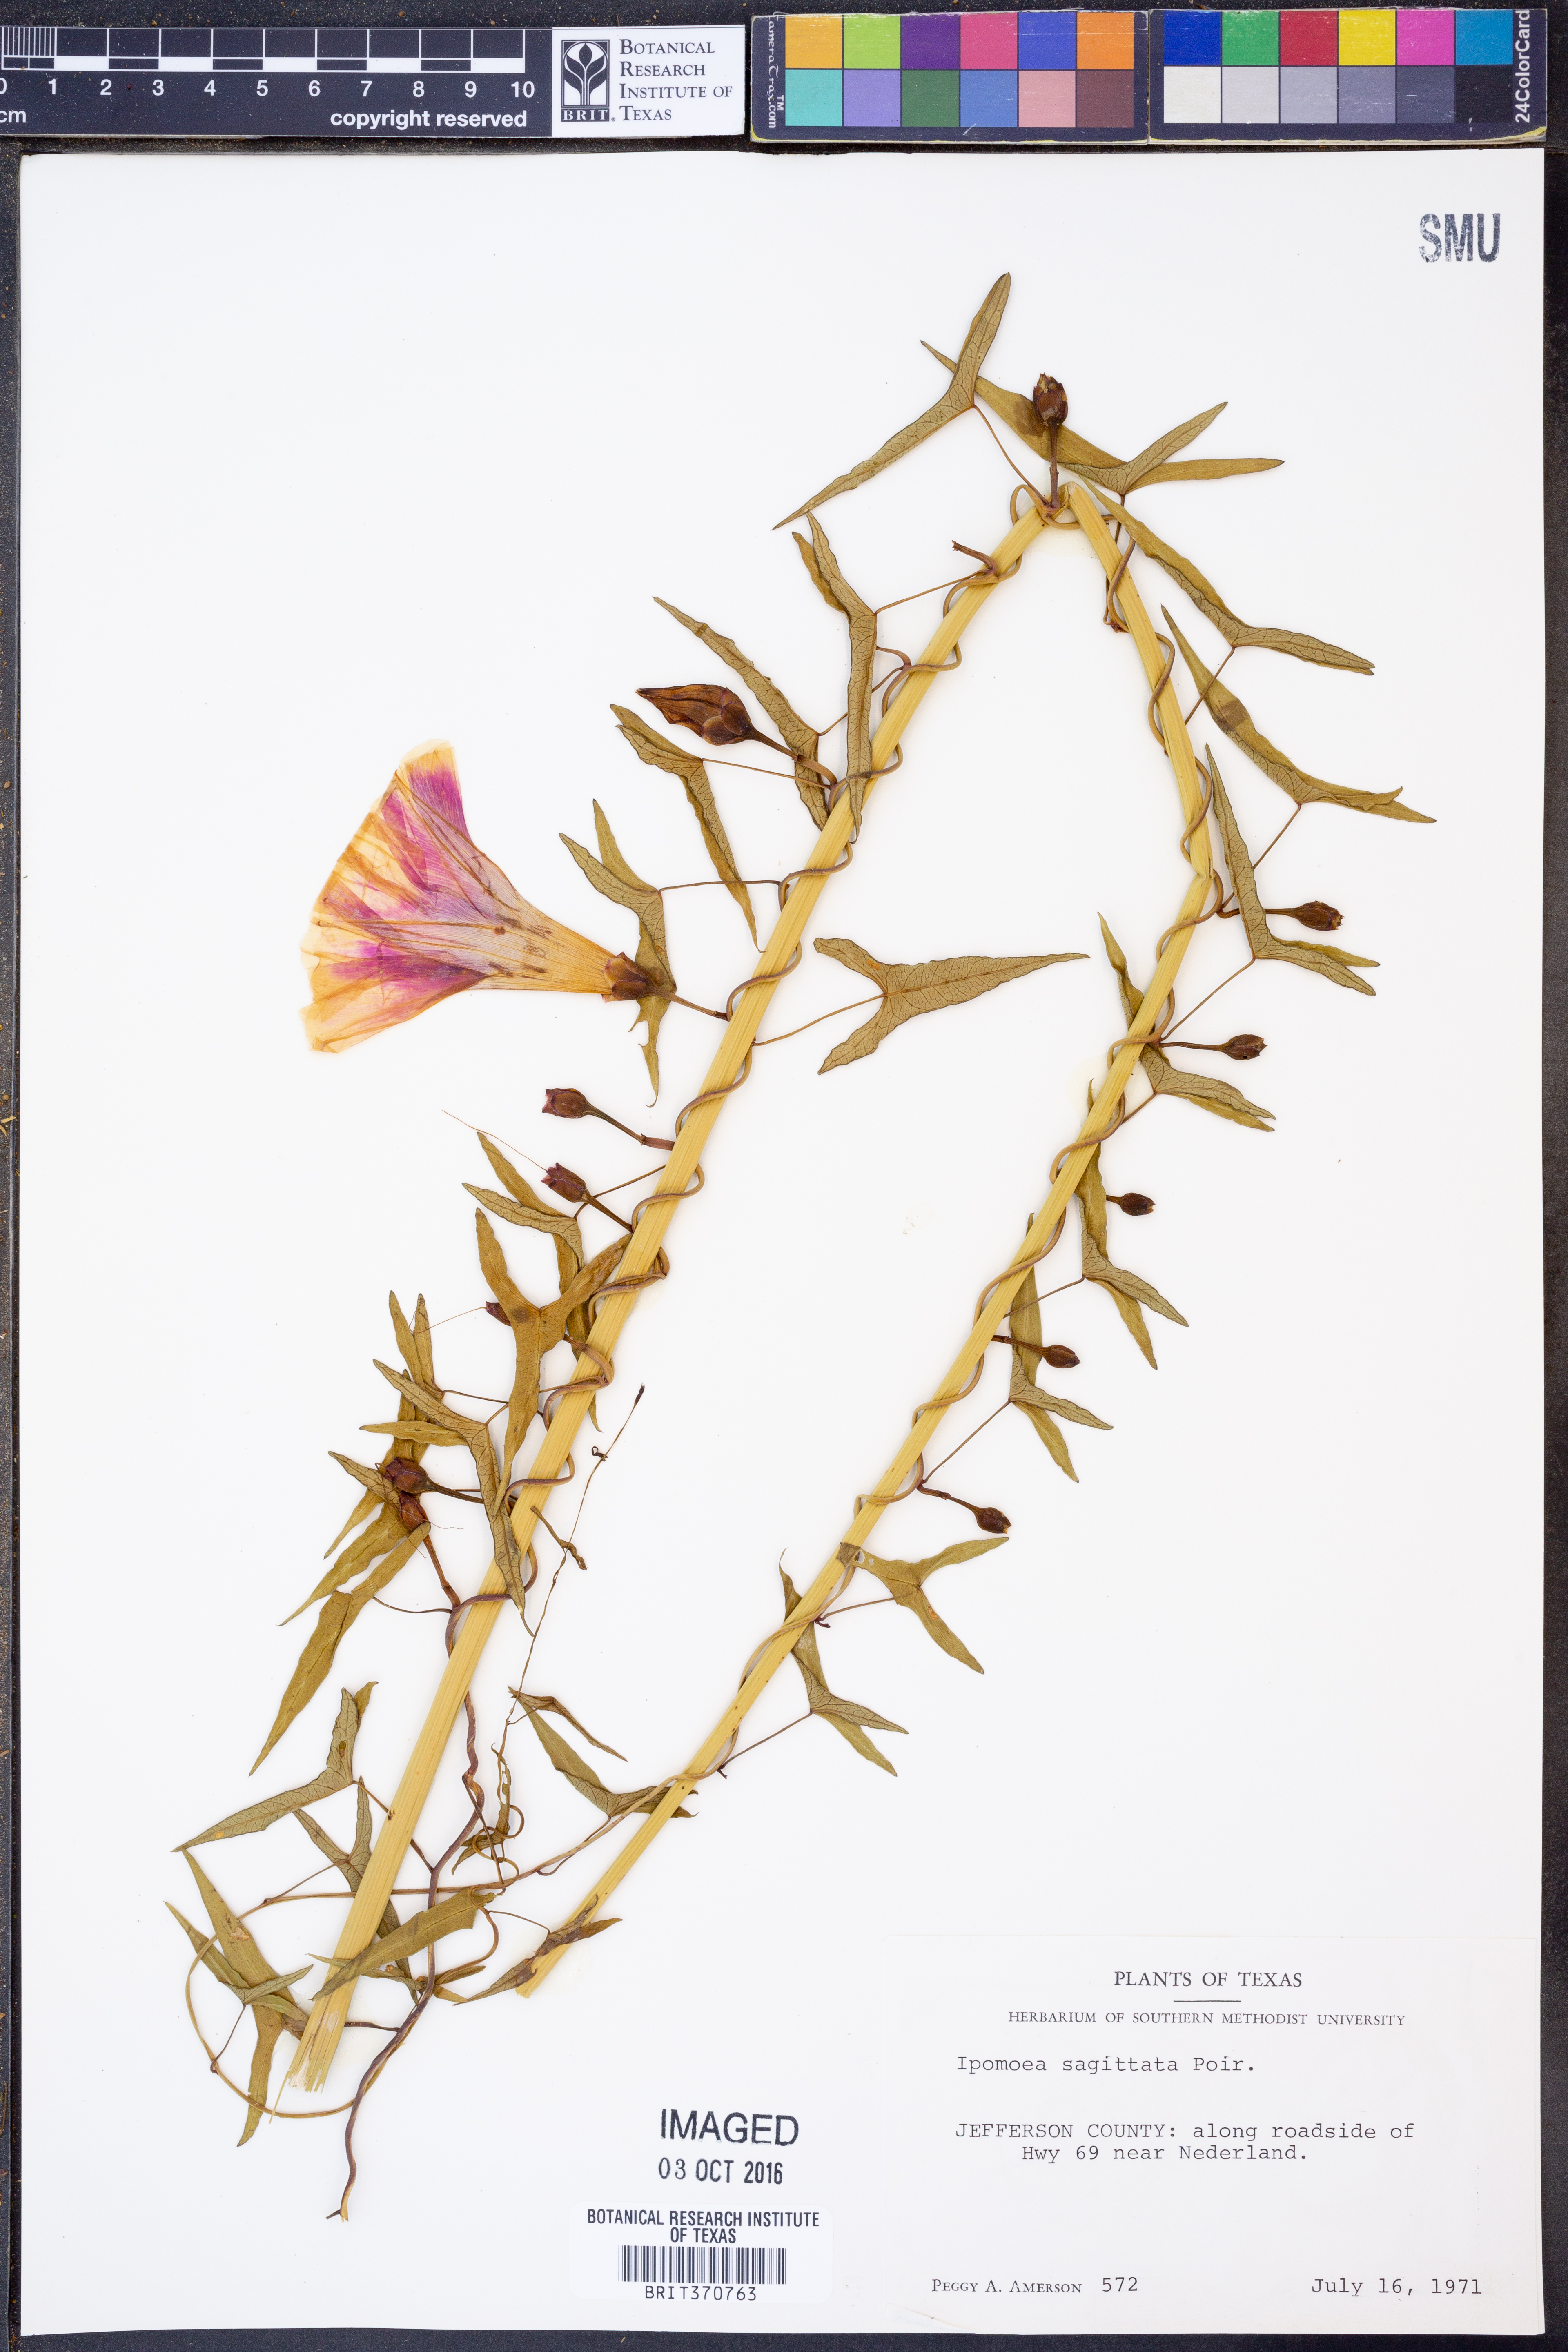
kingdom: Plantae
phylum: Tracheophyta
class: Magnoliopsida
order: Solanales
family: Convolvulaceae
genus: Ipomoea
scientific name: Ipomoea sinensis
